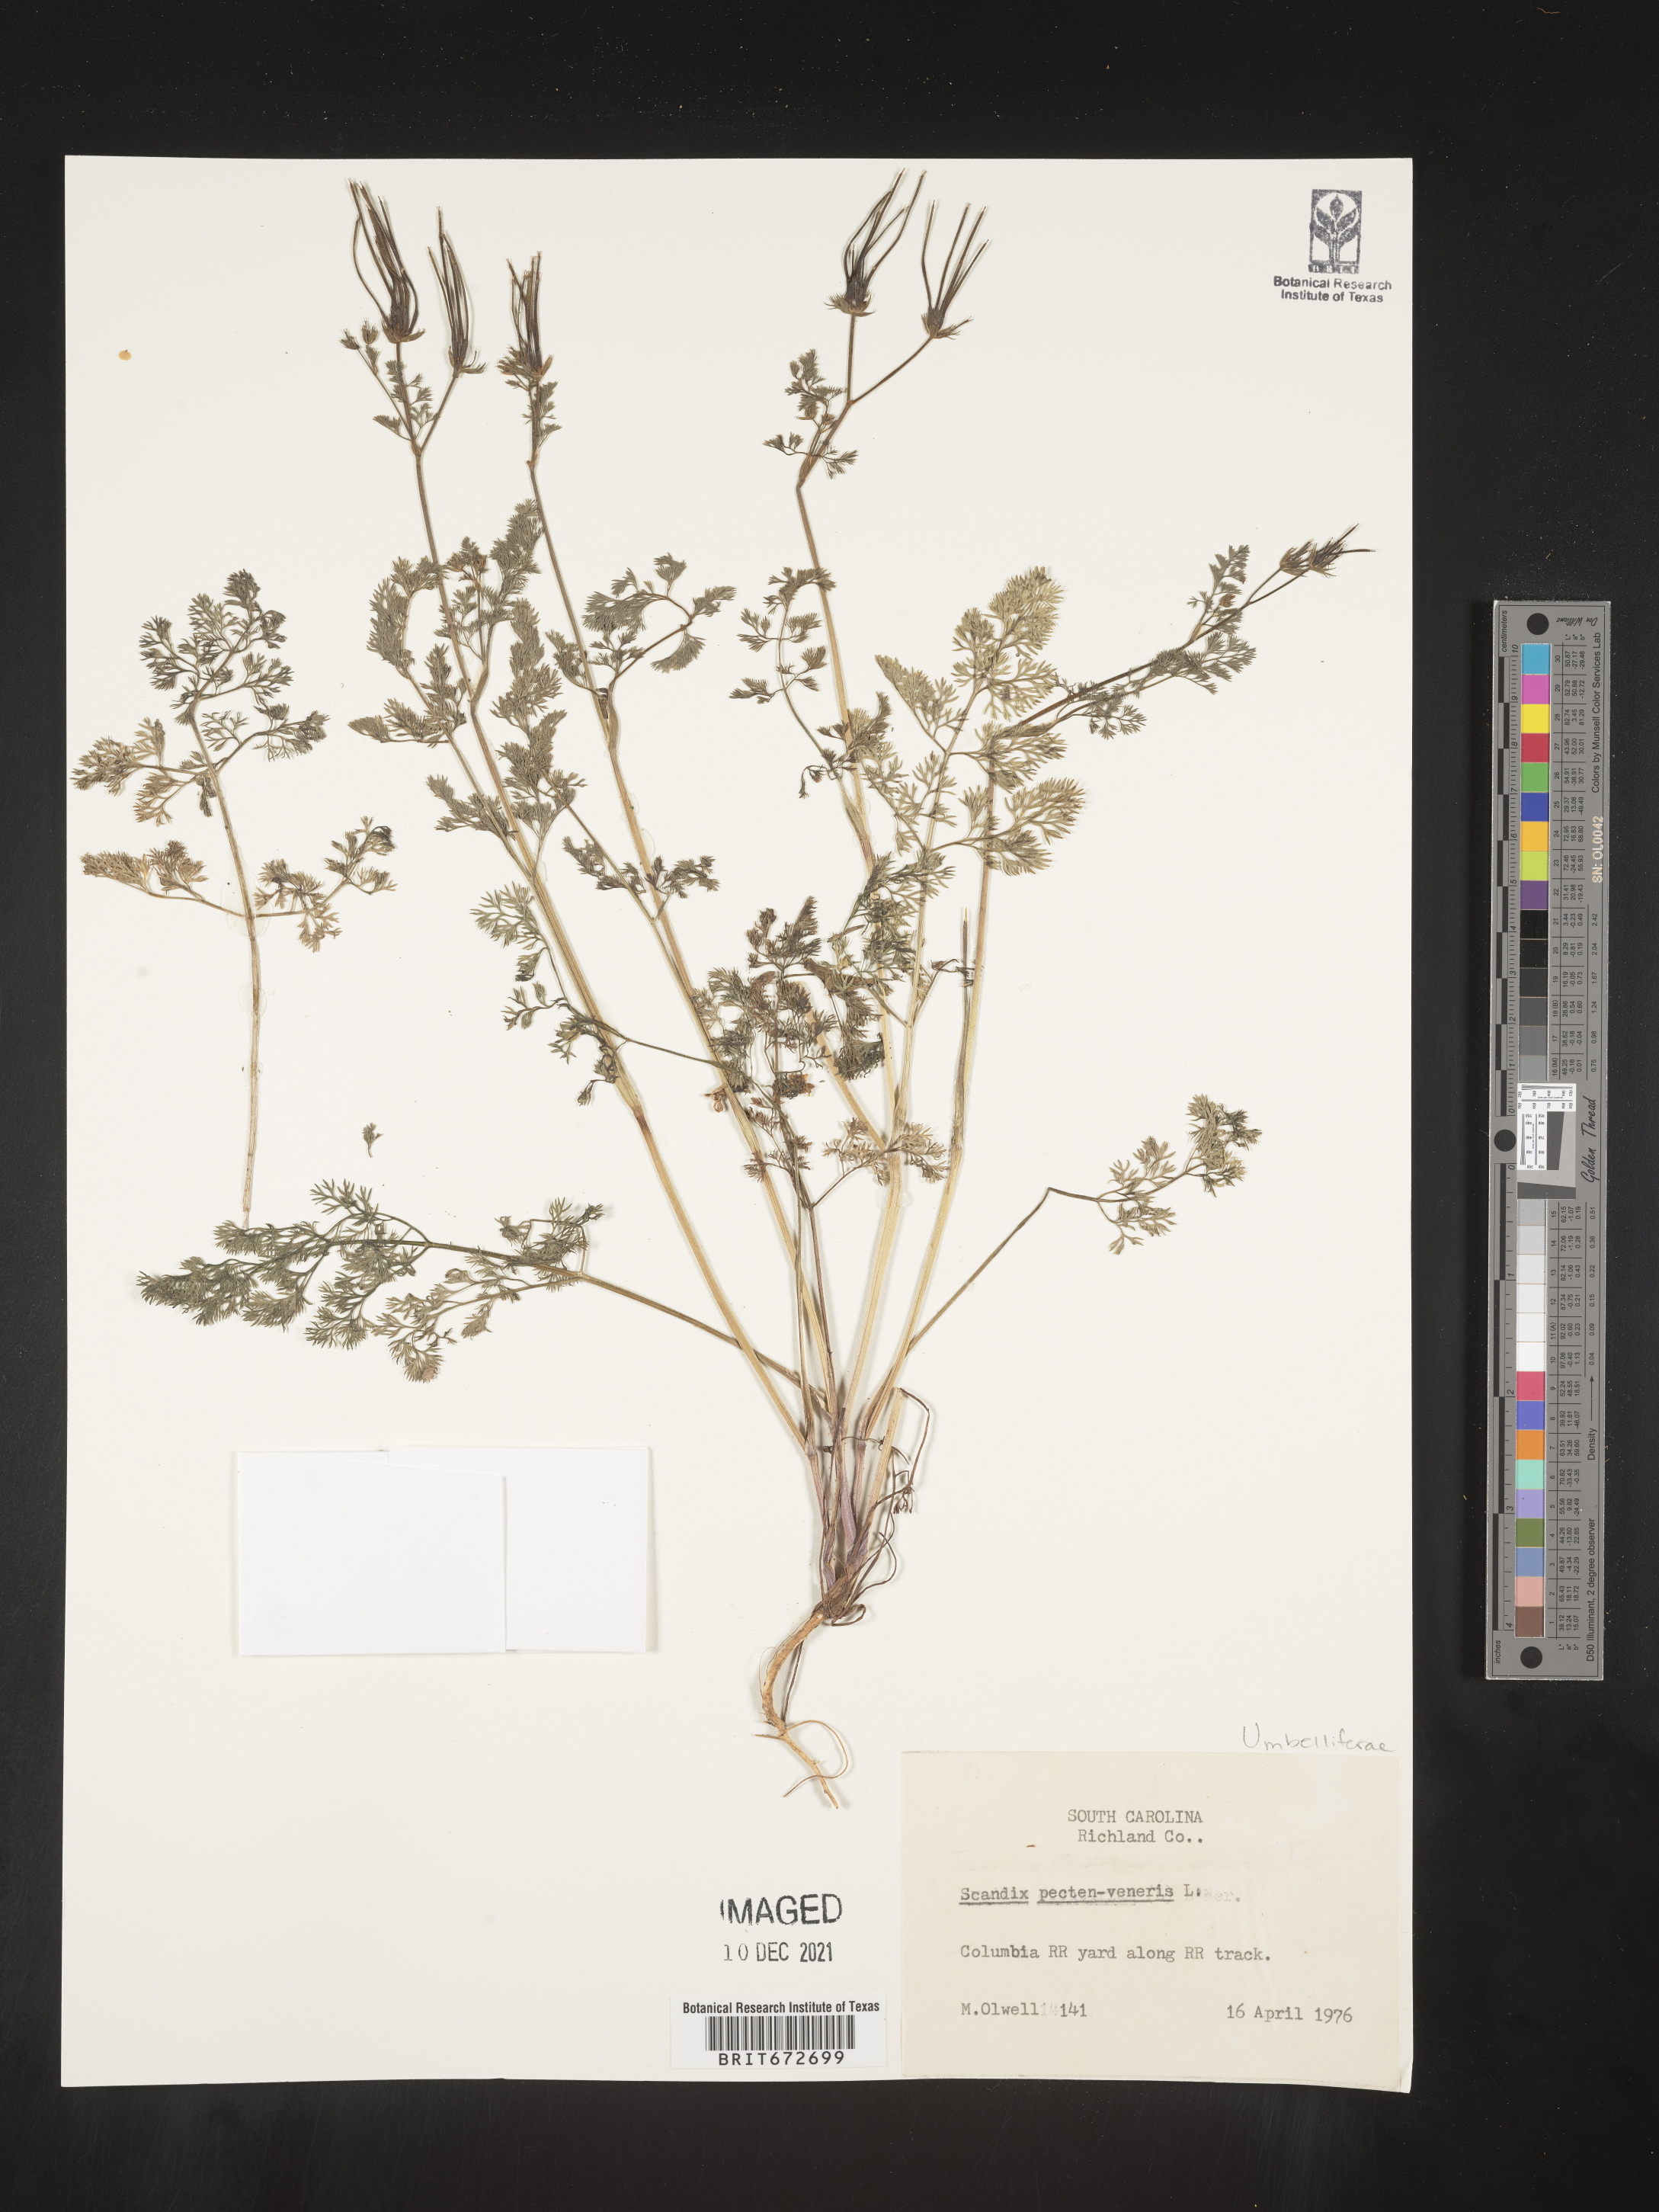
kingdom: Plantae
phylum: Tracheophyta
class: Magnoliopsida
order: Apiales
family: Apiaceae
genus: Scandix
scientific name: Scandix
